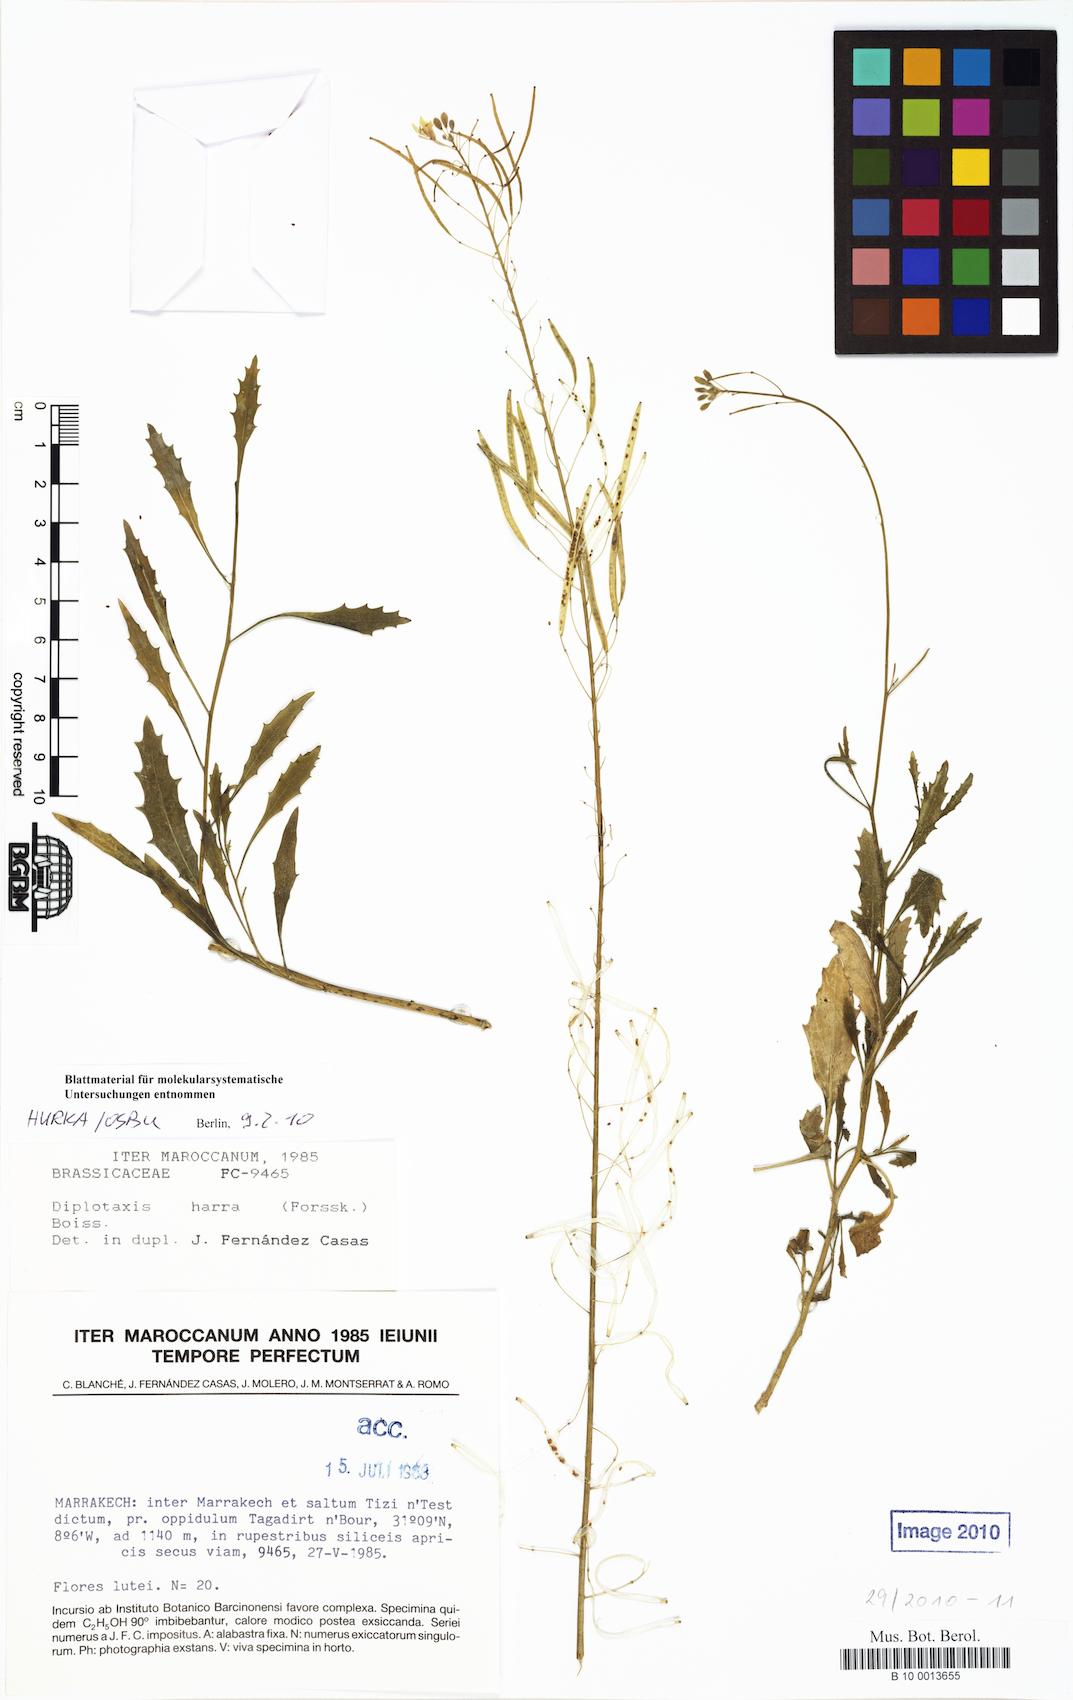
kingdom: Plantae
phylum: Tracheophyta
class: Magnoliopsida
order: Brassicales
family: Brassicaceae
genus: Diplotaxis
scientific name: Diplotaxis harra
